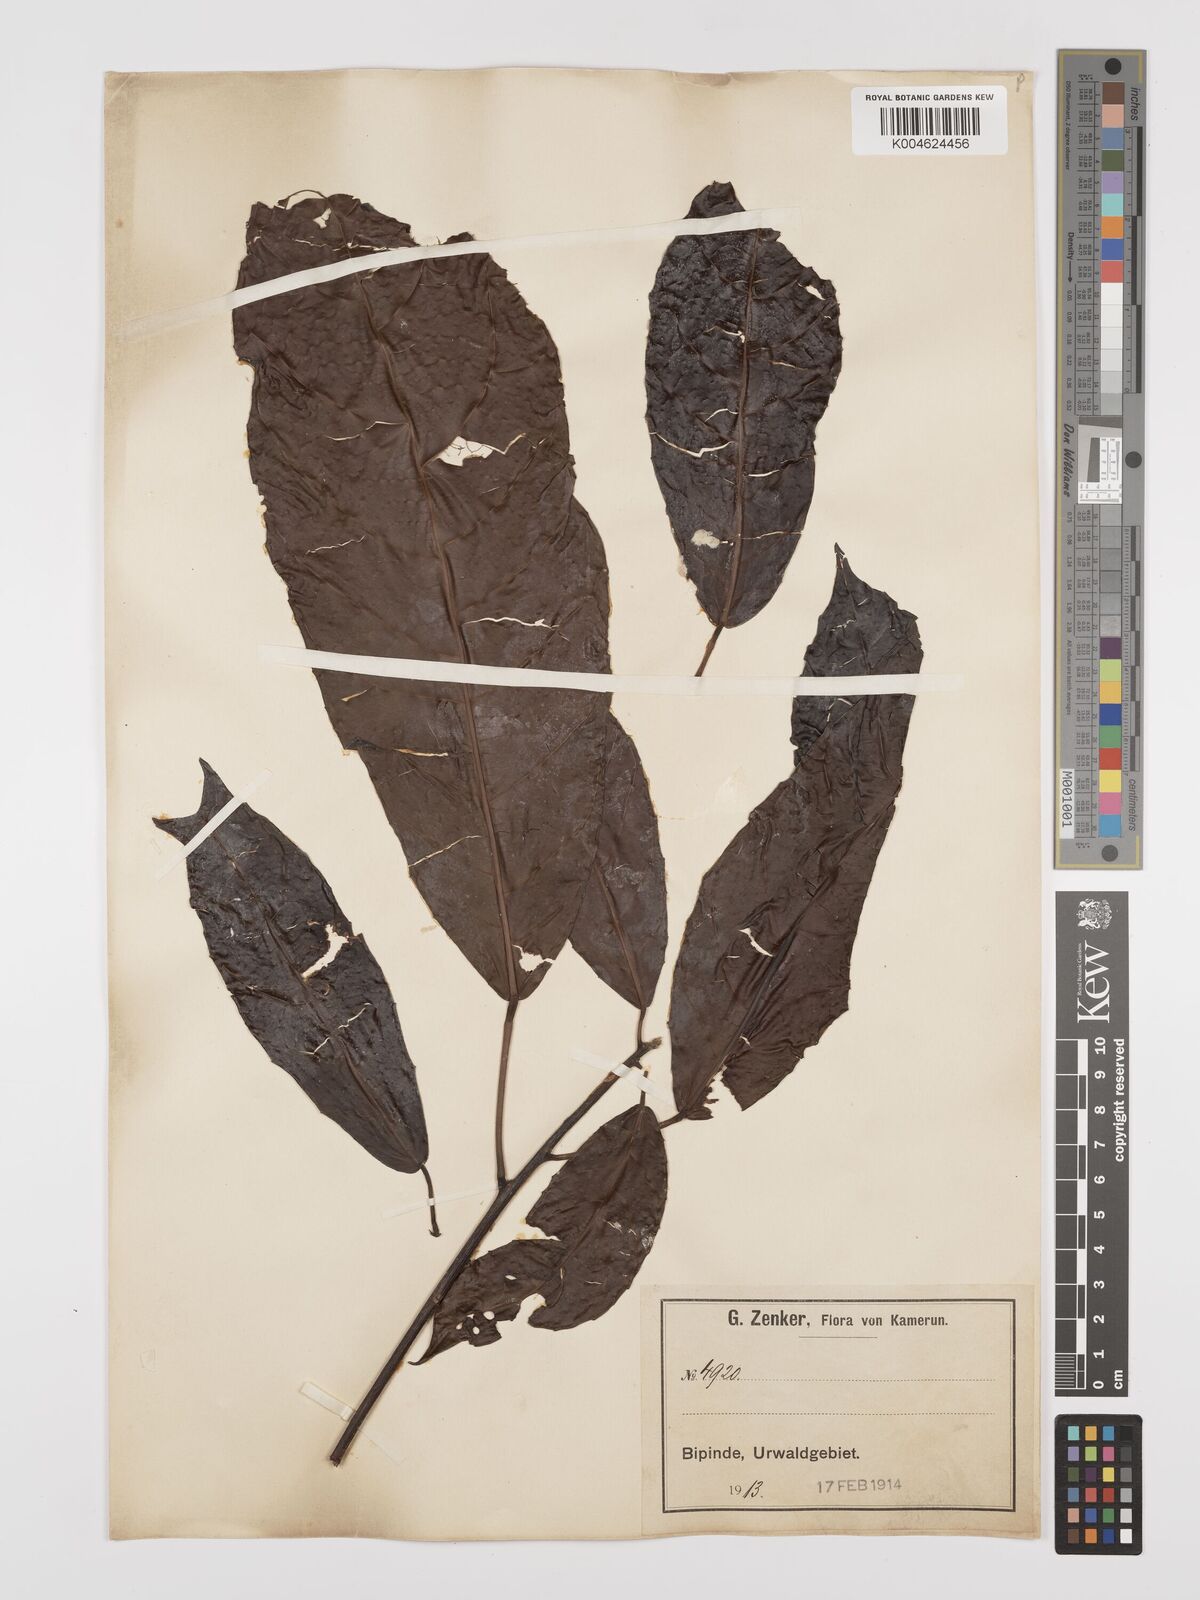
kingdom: Plantae
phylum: Tracheophyta
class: Magnoliopsida
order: Malpighiales
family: Euphorbiaceae
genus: Grossera
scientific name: Grossera major
